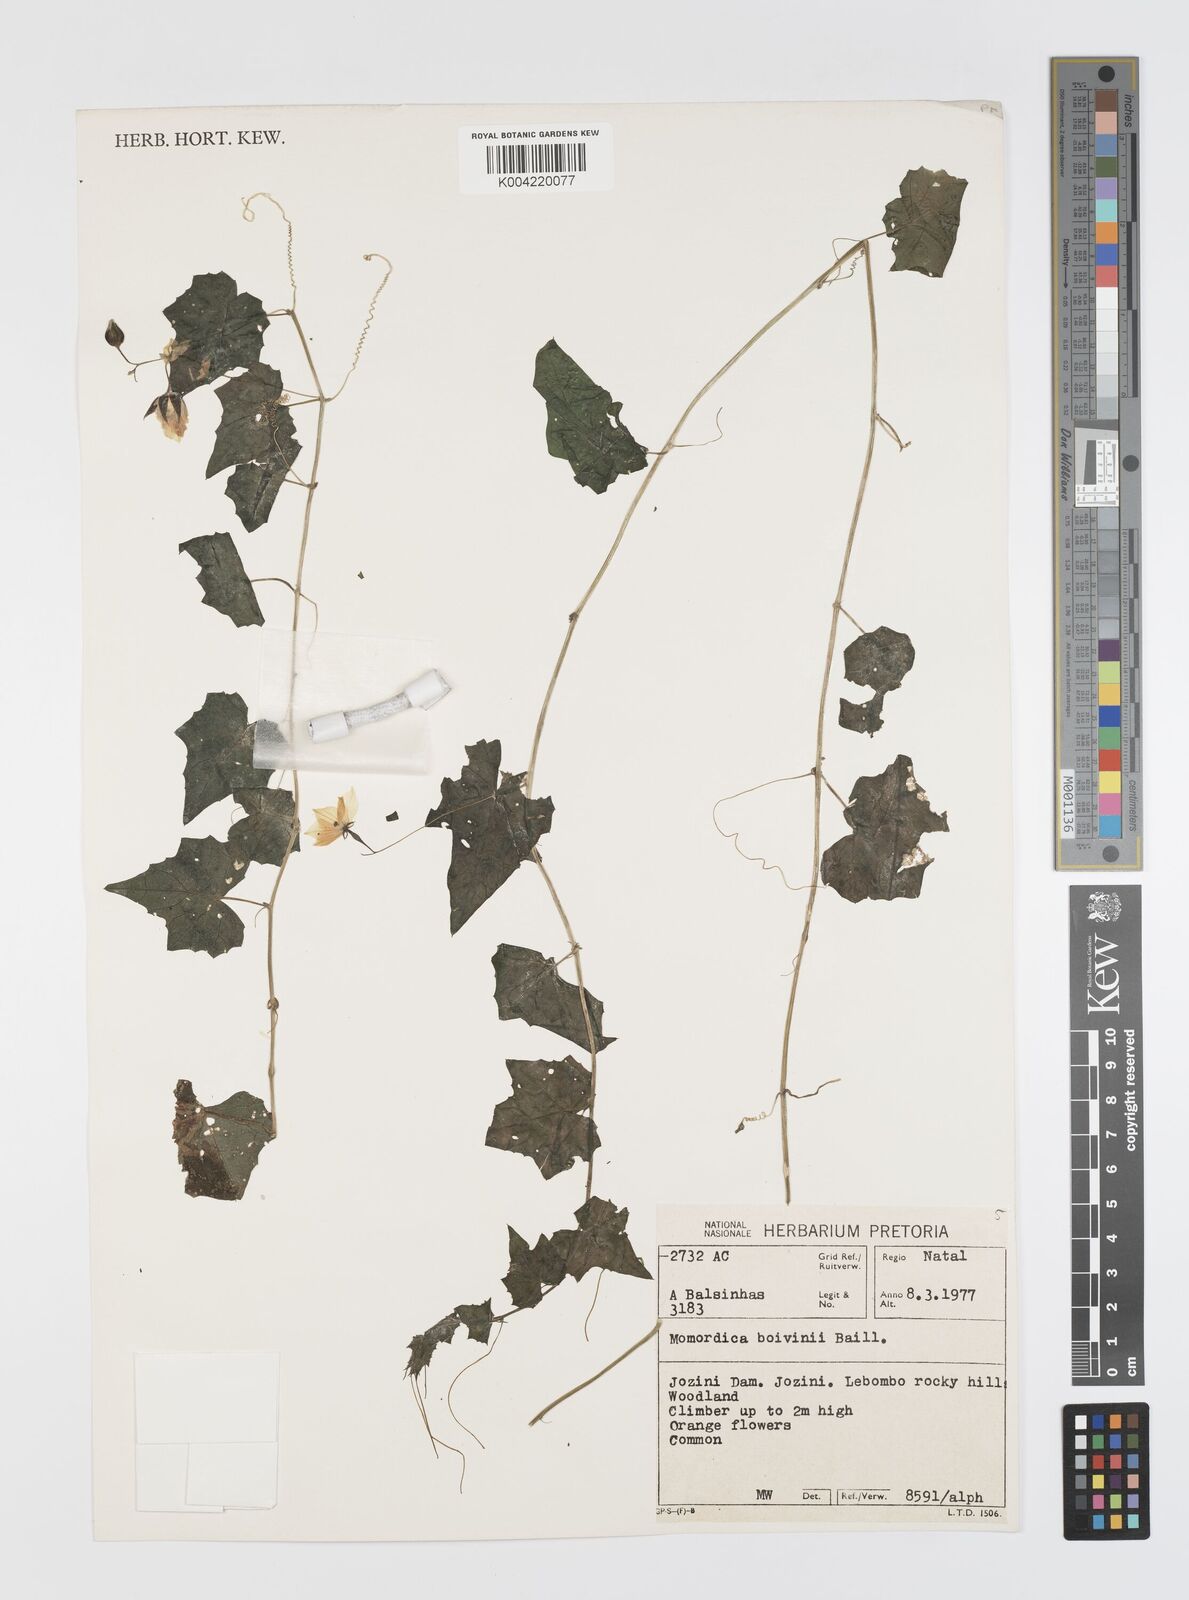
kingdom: Plantae
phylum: Tracheophyta
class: Magnoliopsida
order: Cucurbitales
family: Cucurbitaceae
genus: Momordica
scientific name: Momordica boivinii
